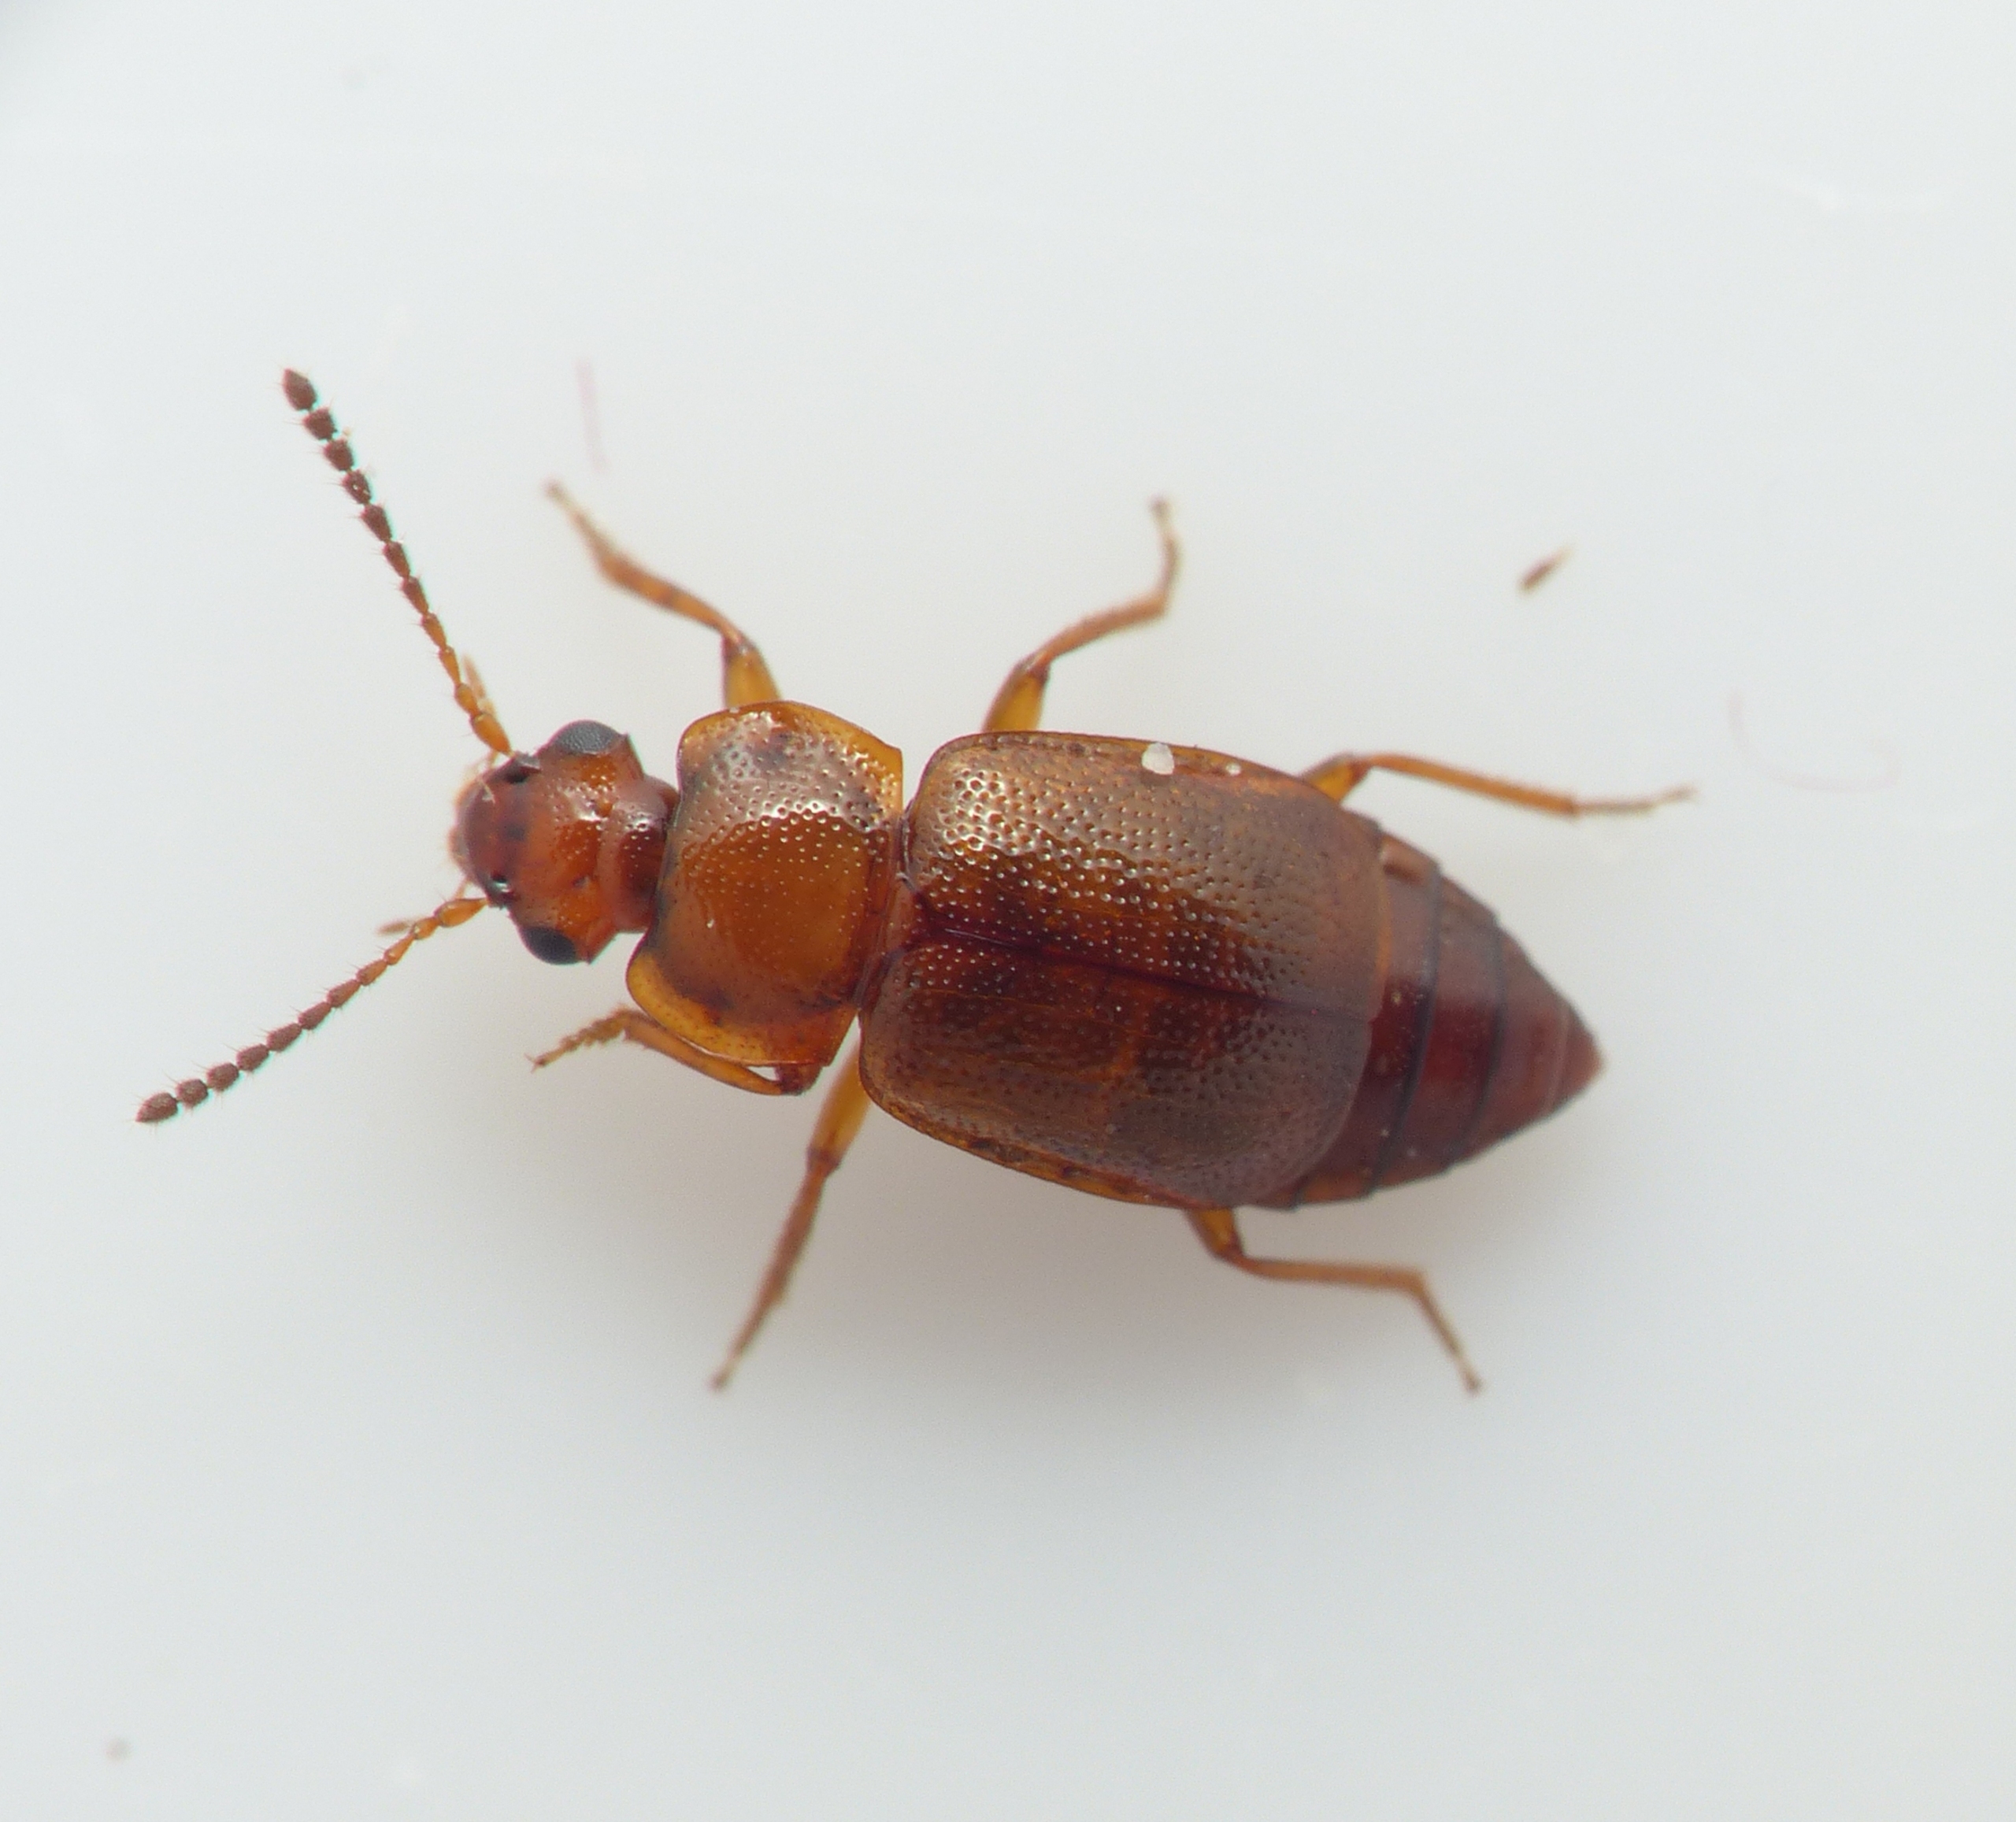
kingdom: Animalia
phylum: Arthropoda
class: Insecta
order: Coleoptera
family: Staphylinidae
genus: Anthobium
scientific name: Anthobium unicolor
